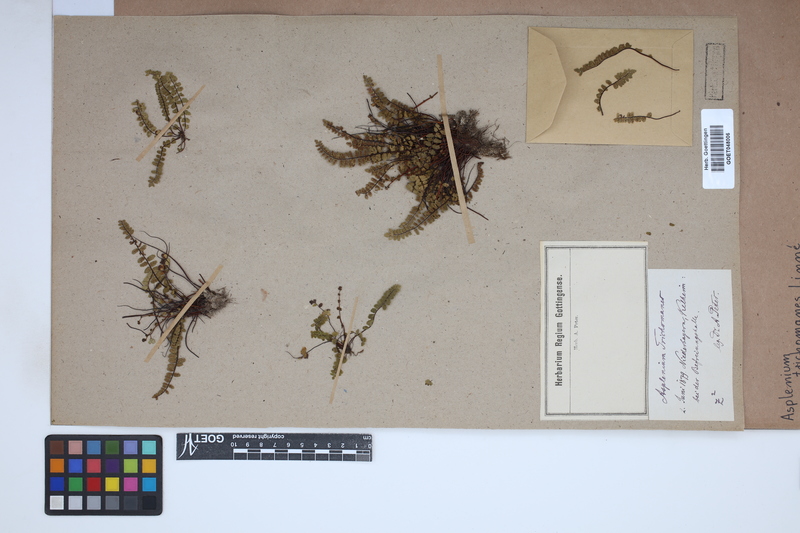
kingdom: Plantae
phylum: Tracheophyta
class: Polypodiopsida
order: Polypodiales
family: Aspleniaceae
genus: Asplenium
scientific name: Asplenium trichomanes
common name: Maidenhair spleenwort
